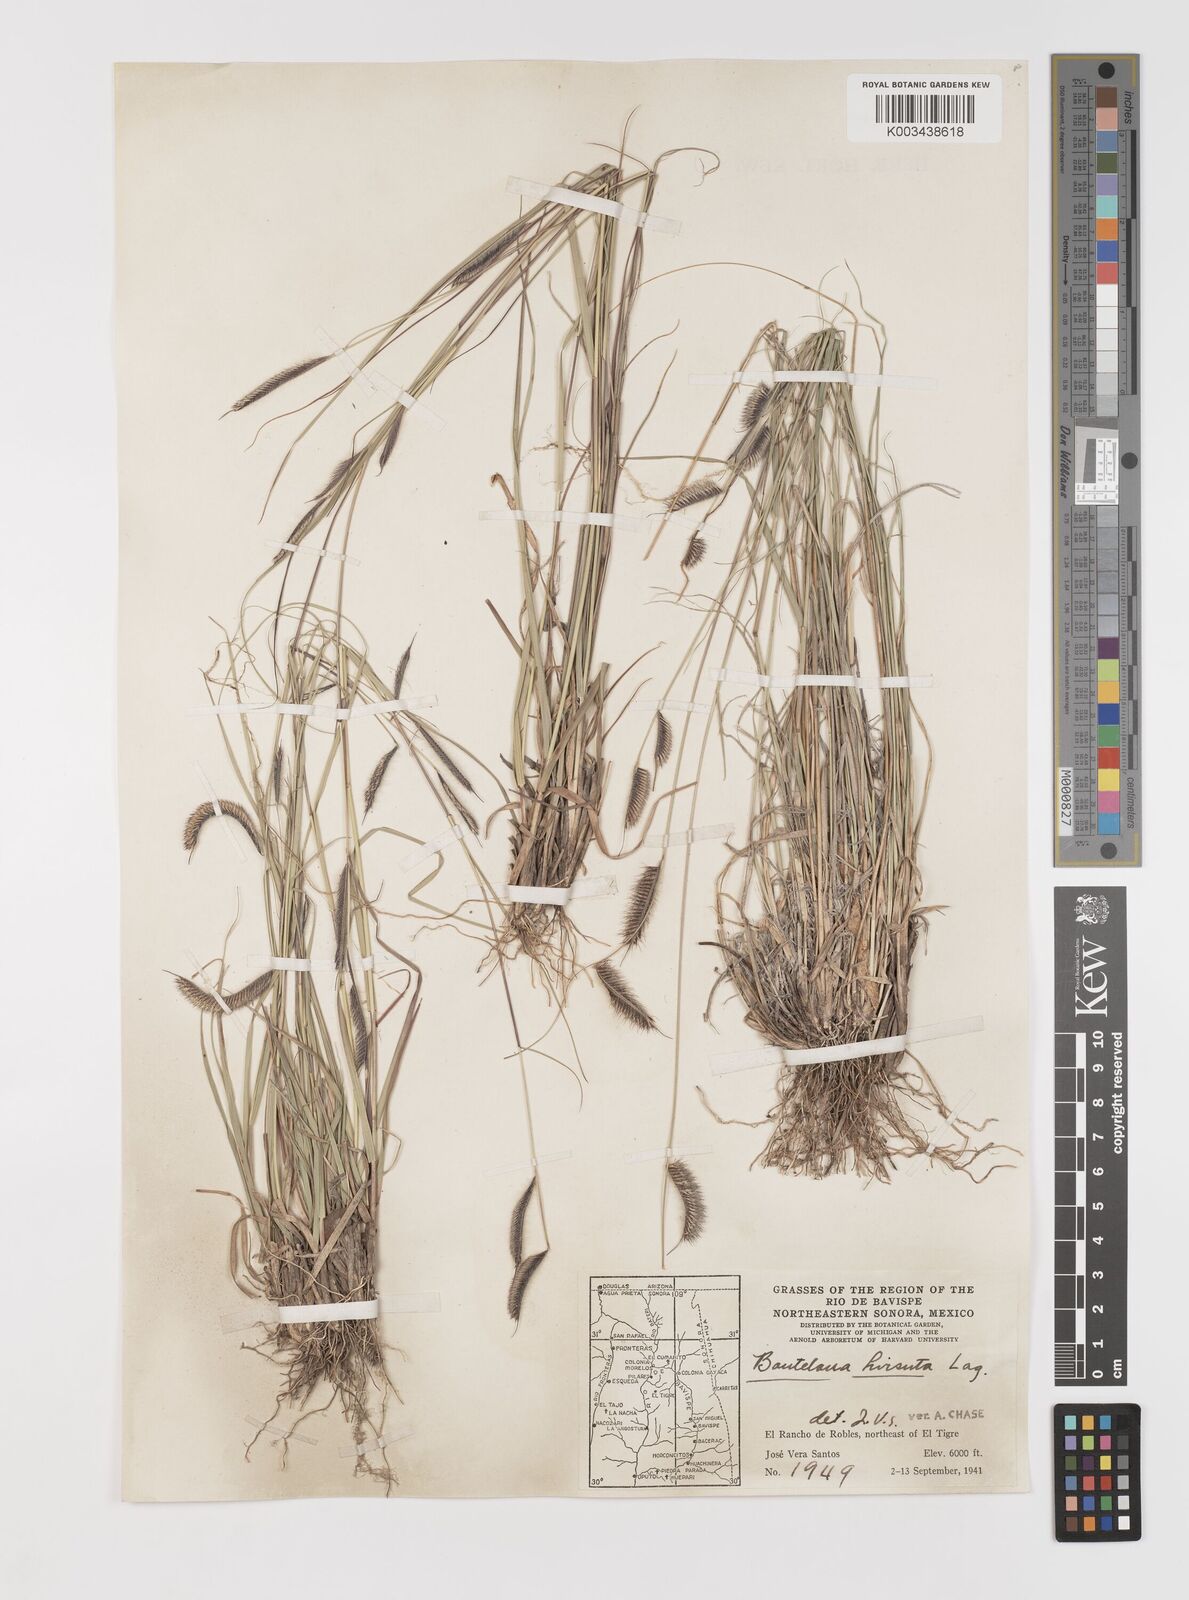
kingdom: Plantae
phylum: Tracheophyta
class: Liliopsida
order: Poales
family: Poaceae
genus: Bouteloua
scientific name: Bouteloua hirsuta
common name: Hairy grama
